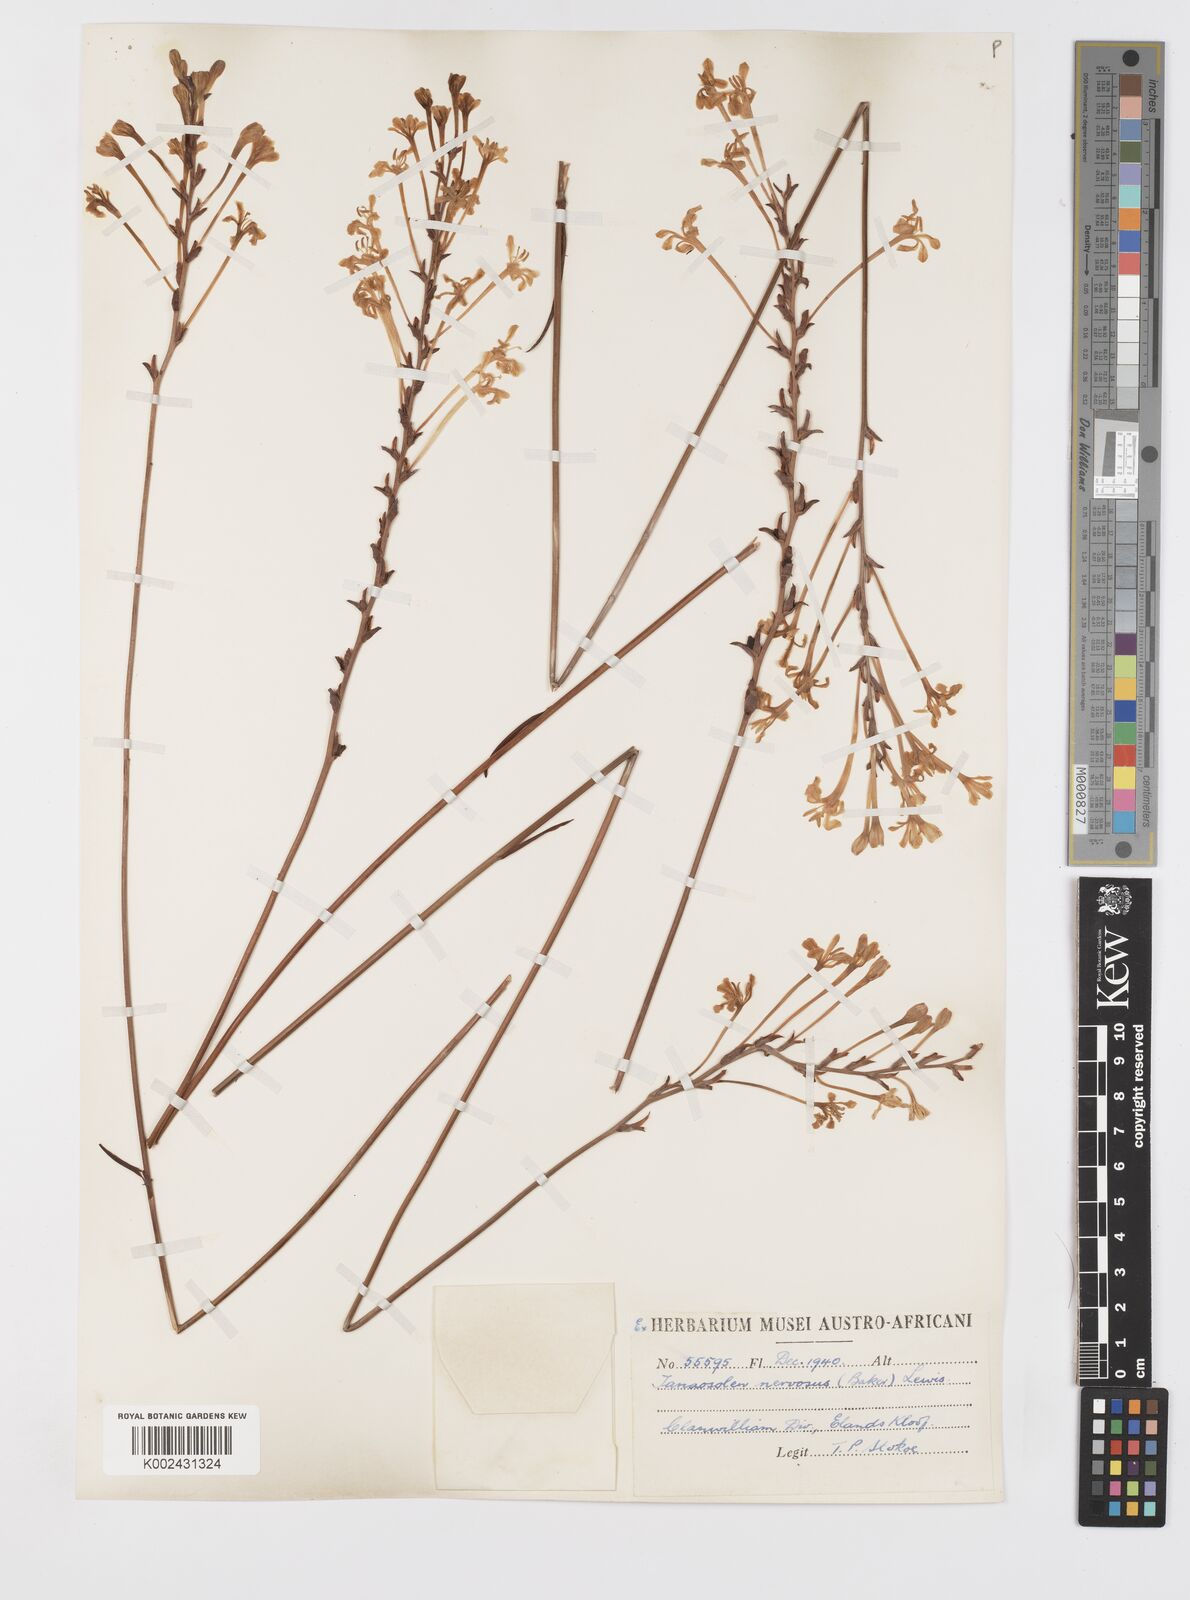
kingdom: Plantae
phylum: Tracheophyta
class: Liliopsida
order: Asparagales
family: Iridaceae
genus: Tritoniopsis
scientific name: Tritoniopsis nervosa
